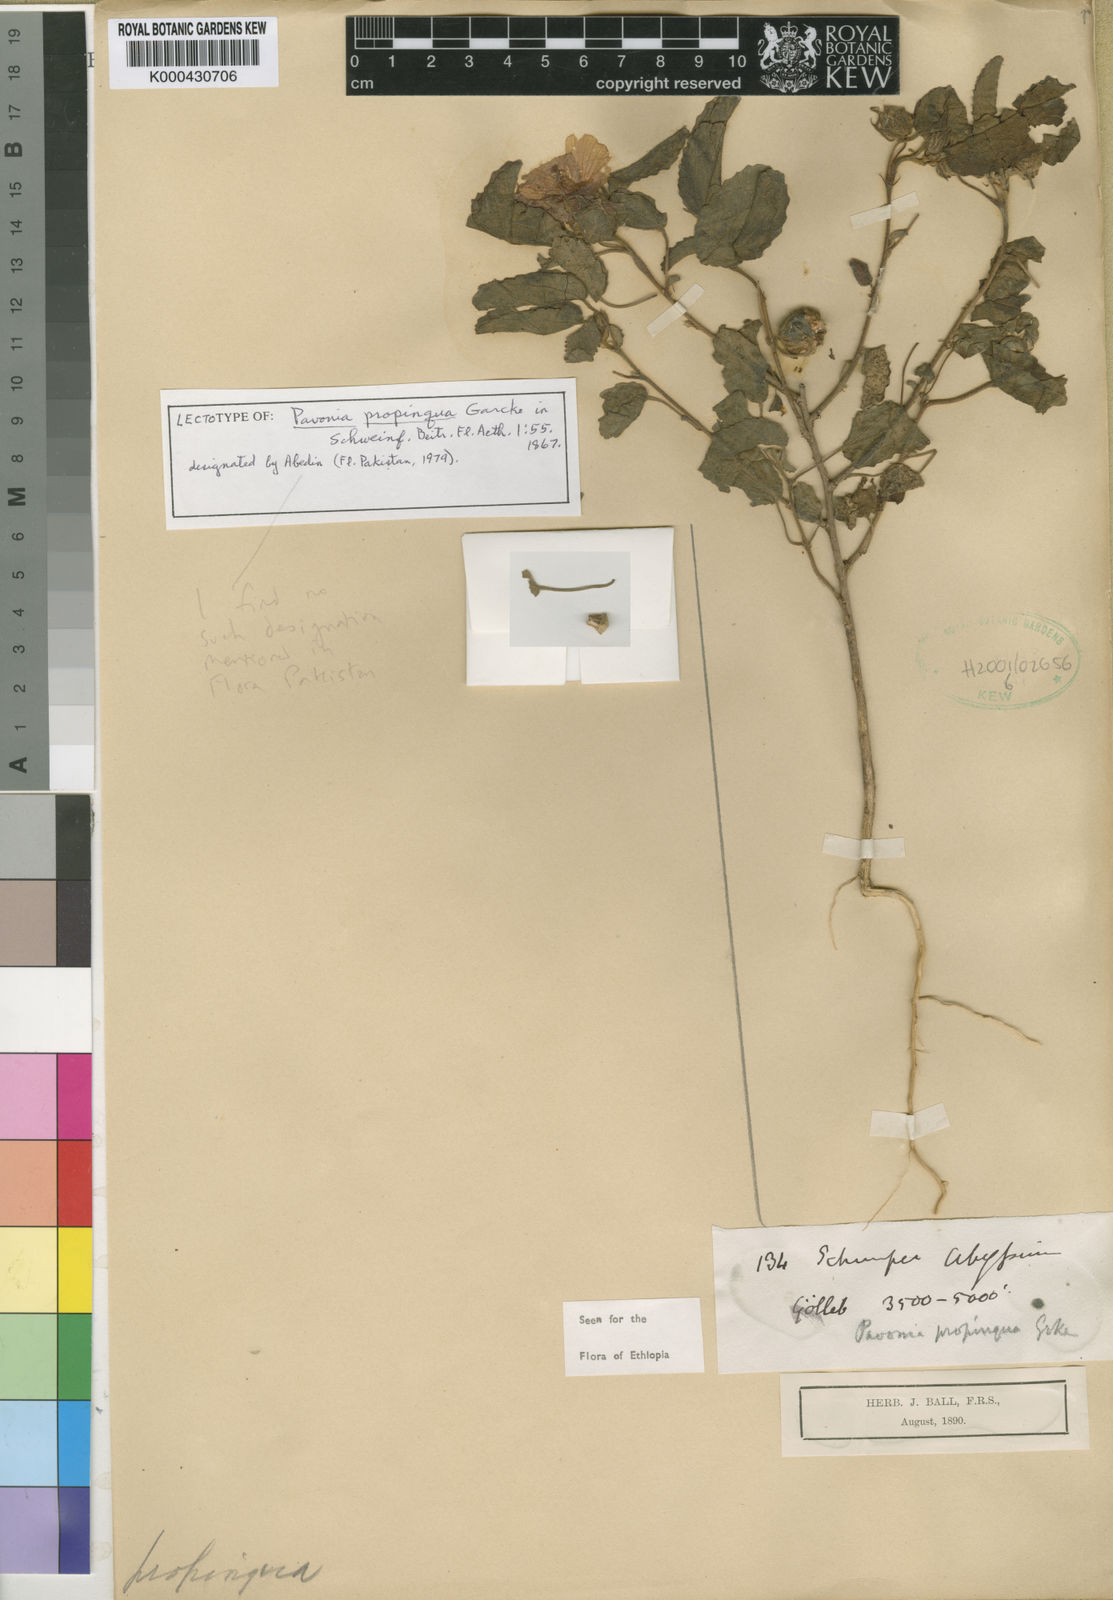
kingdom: Plantae
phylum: Tracheophyta
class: Magnoliopsida
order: Malvales
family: Malvaceae
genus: Pavonia
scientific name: Pavonia propinqua
